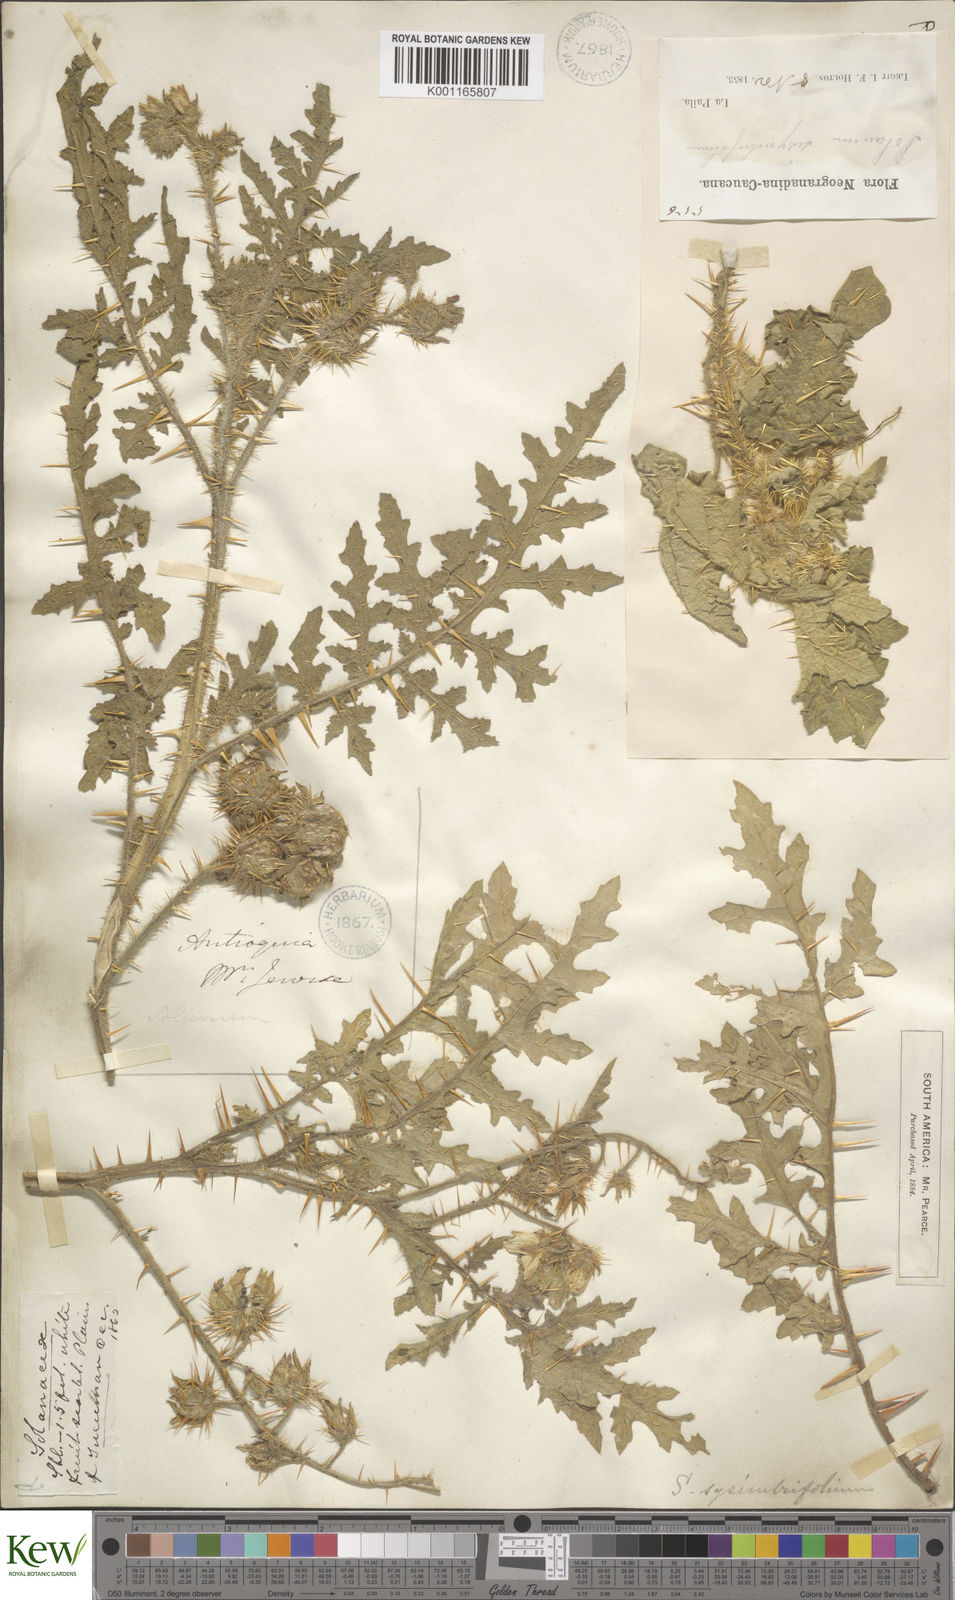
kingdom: Plantae
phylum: Tracheophyta
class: Magnoliopsida
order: Solanales
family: Solanaceae
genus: Solanum
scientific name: Solanum sisymbriifolium
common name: Red buffalo-bur
